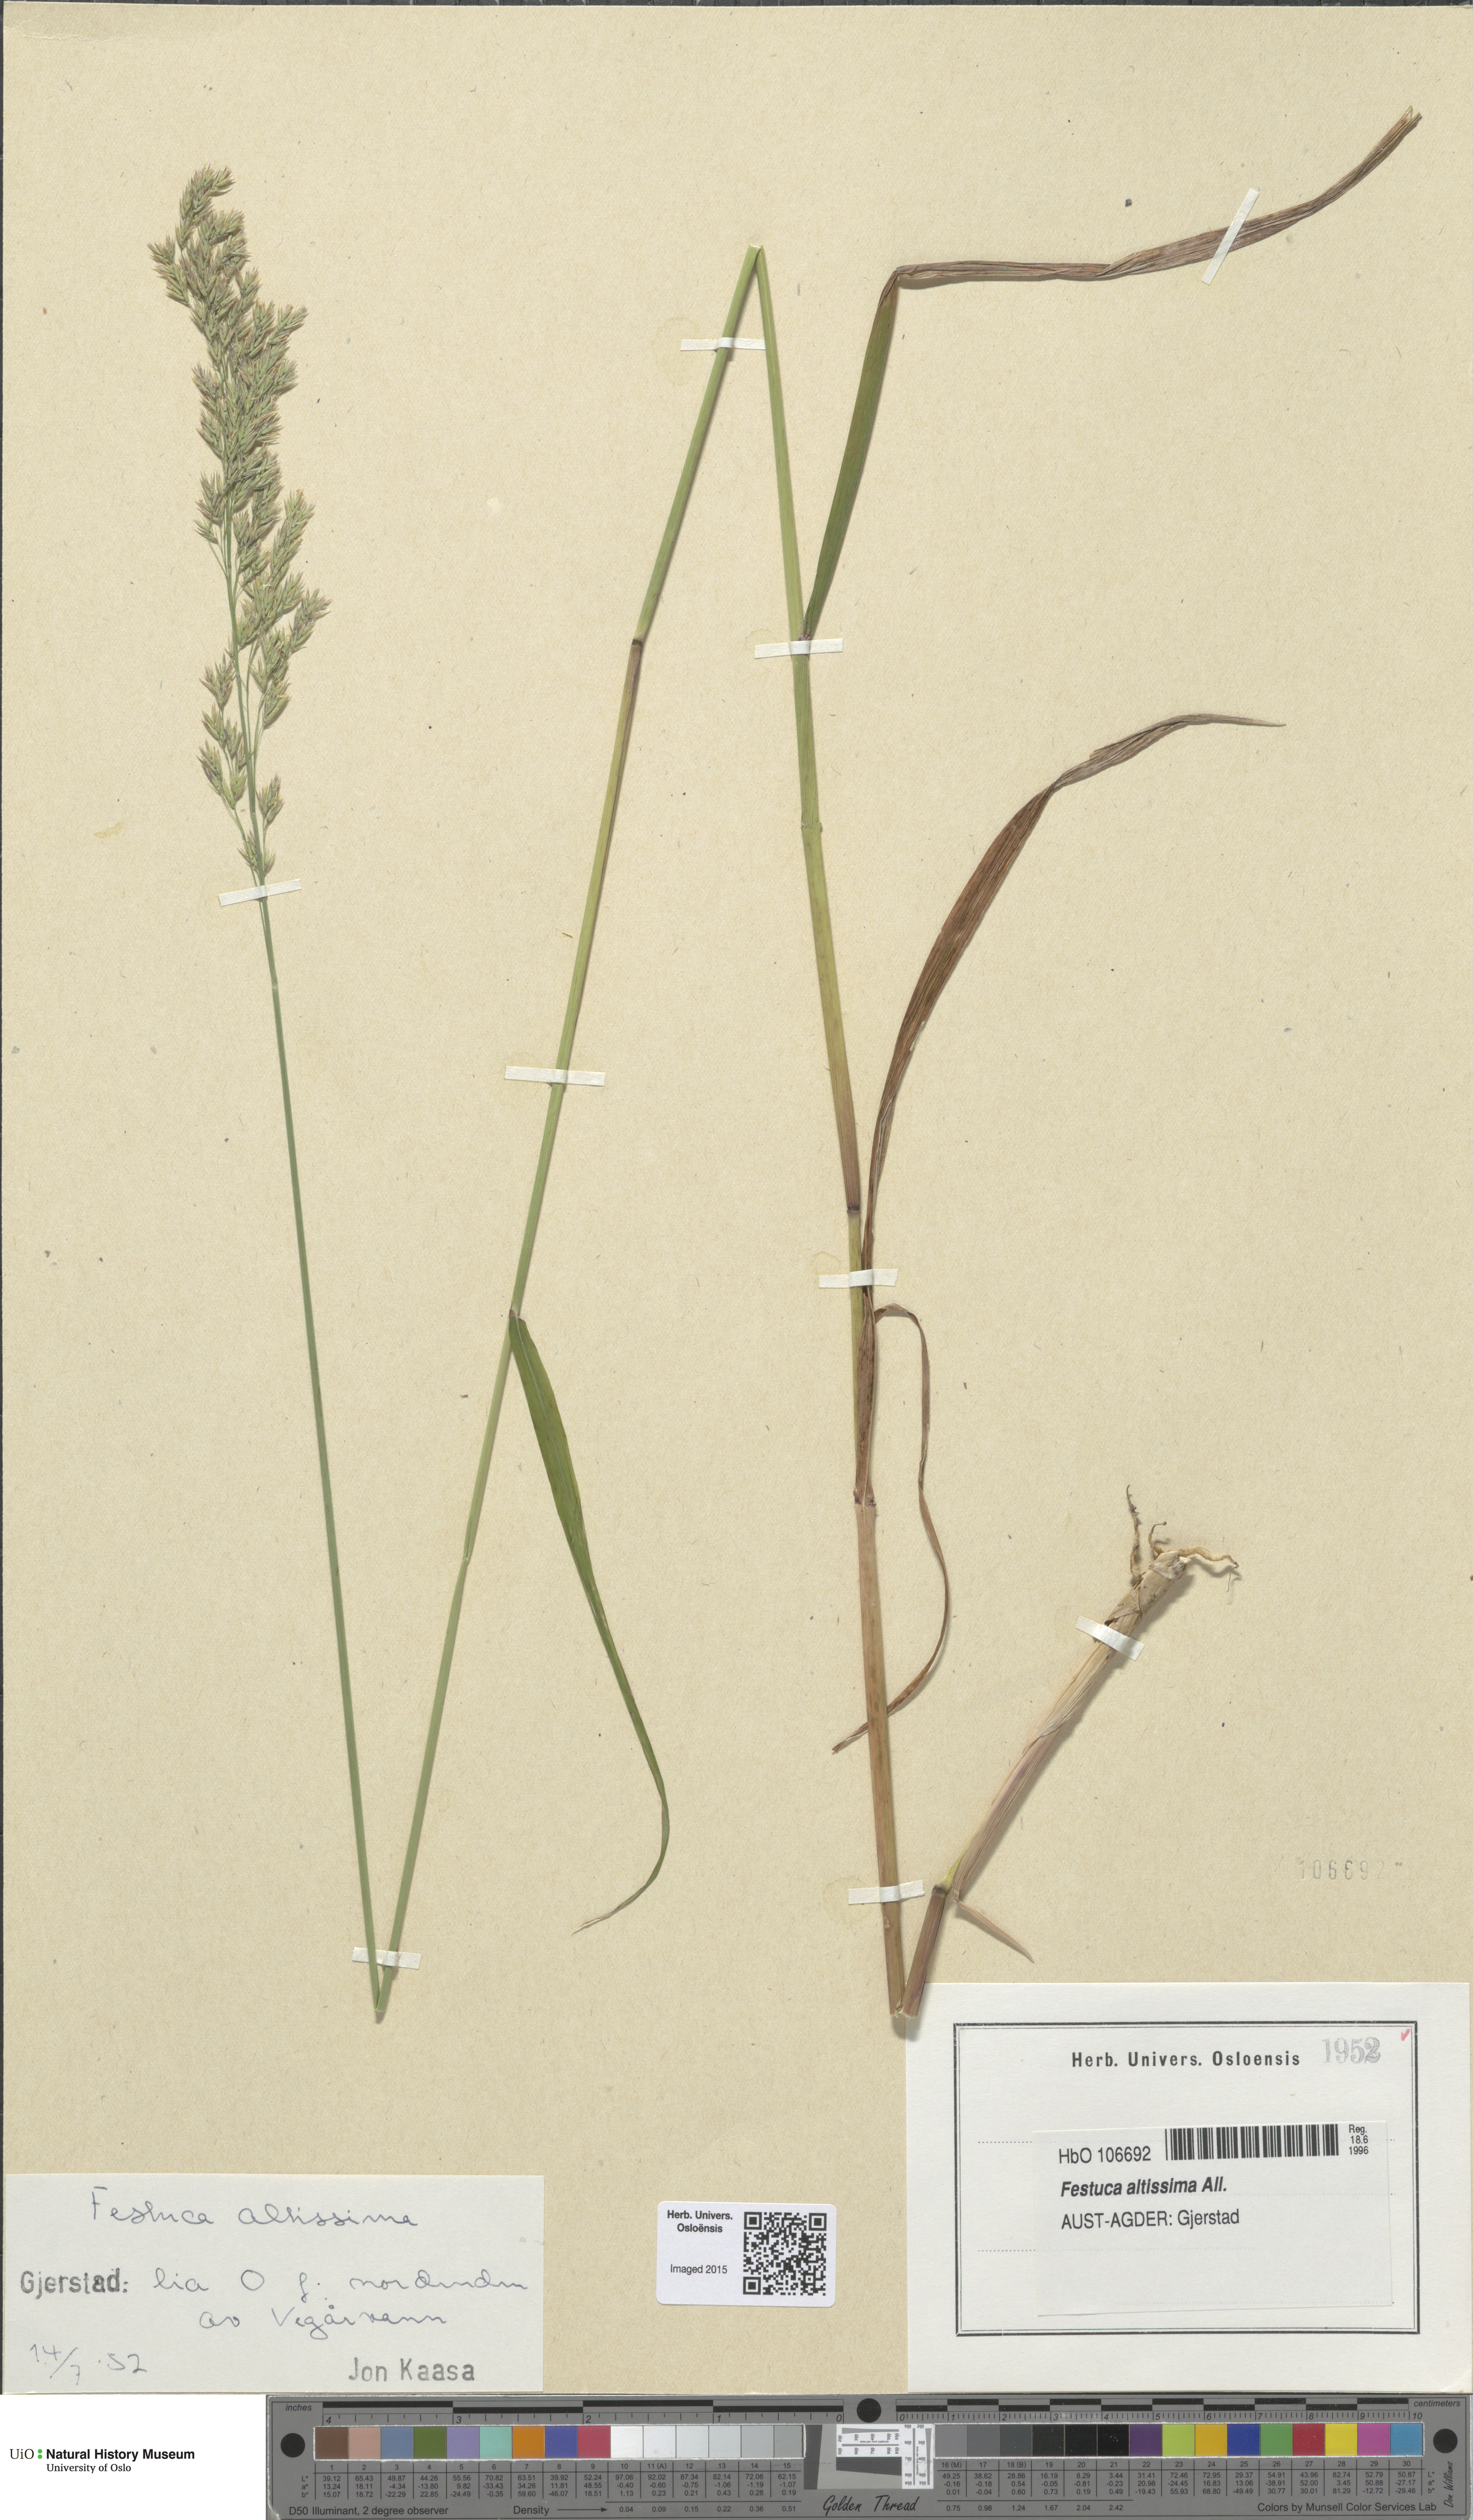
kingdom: Plantae
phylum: Tracheophyta
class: Liliopsida
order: Poales
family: Poaceae
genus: Festuca
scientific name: Festuca altissima
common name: Wood fescue
